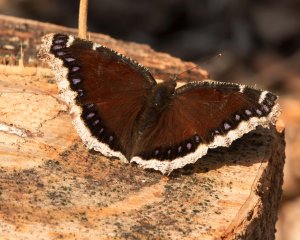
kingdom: Animalia
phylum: Arthropoda
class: Insecta
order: Lepidoptera
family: Nymphalidae
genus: Nymphalis
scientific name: Nymphalis antiopa
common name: Mourning Cloak
